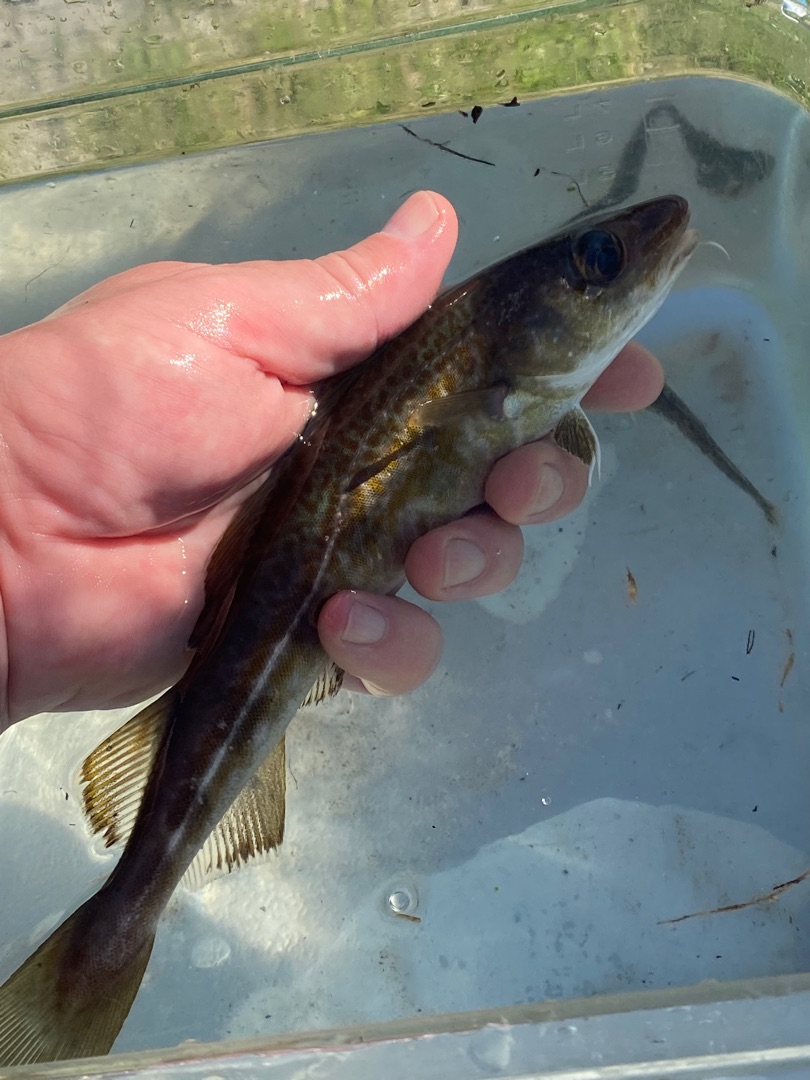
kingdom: Animalia
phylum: Chordata
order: Gadiformes
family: Gadidae
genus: Gadus
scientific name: Gadus morhua
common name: Torsk
